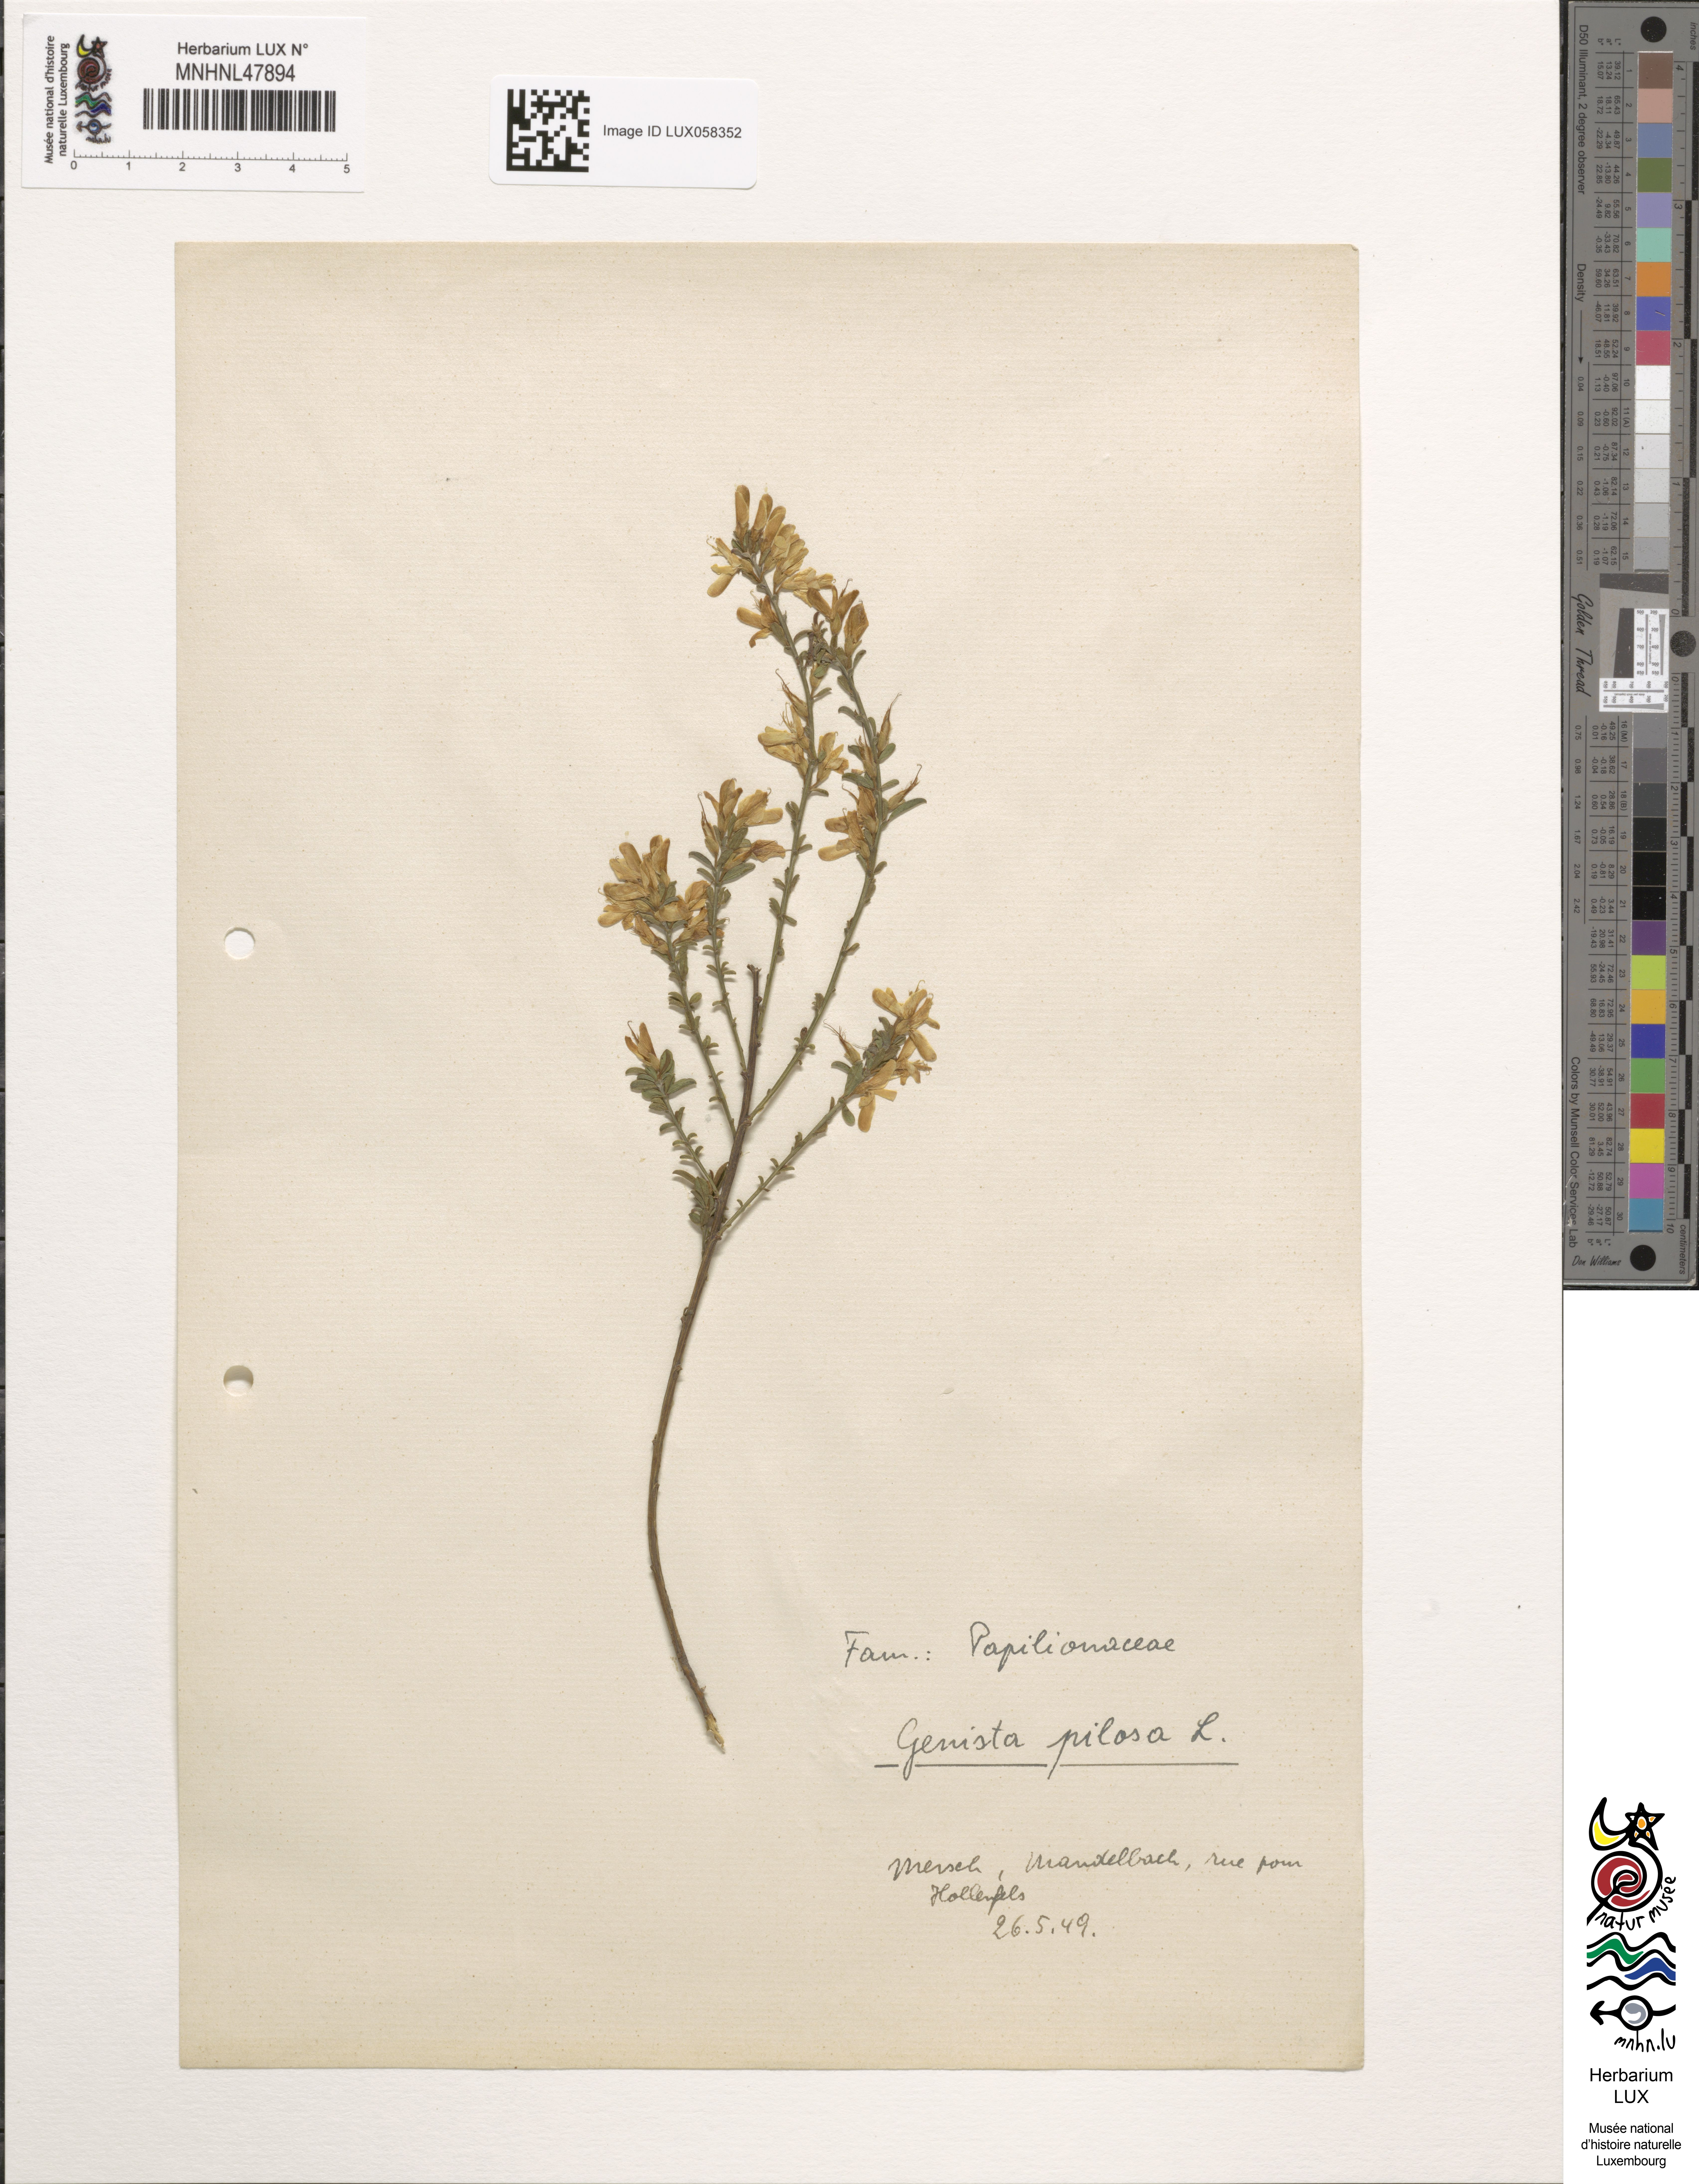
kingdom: Plantae
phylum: Tracheophyta
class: Magnoliopsida
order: Fabales
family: Fabaceae
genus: Genista
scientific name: Genista pilosa
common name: Hairy greenweed
